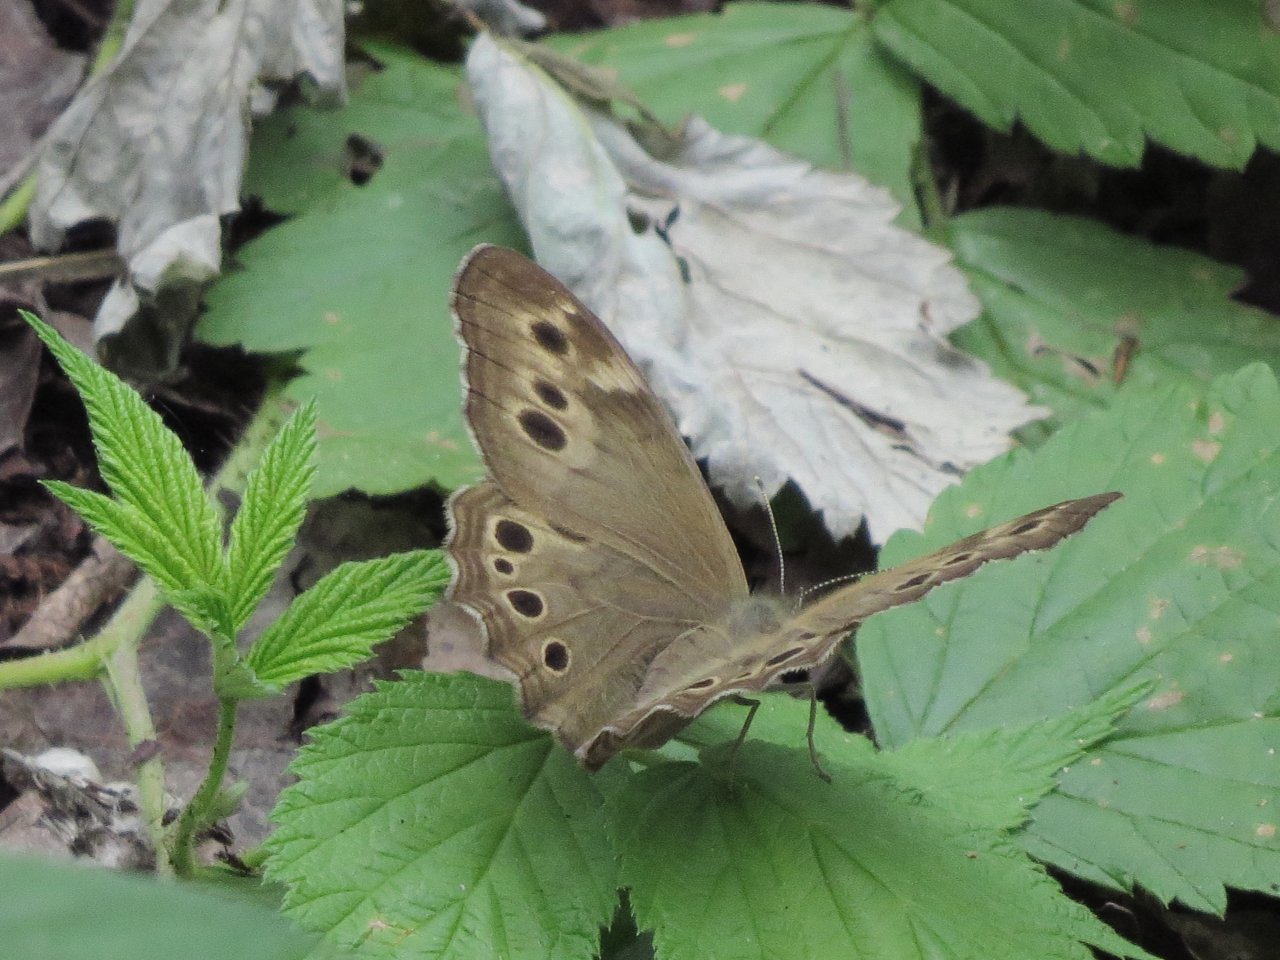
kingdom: Animalia
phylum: Arthropoda
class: Insecta
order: Lepidoptera
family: Nymphalidae
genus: Lethe
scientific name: Lethe anthedon
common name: Northern Pearly-Eye
